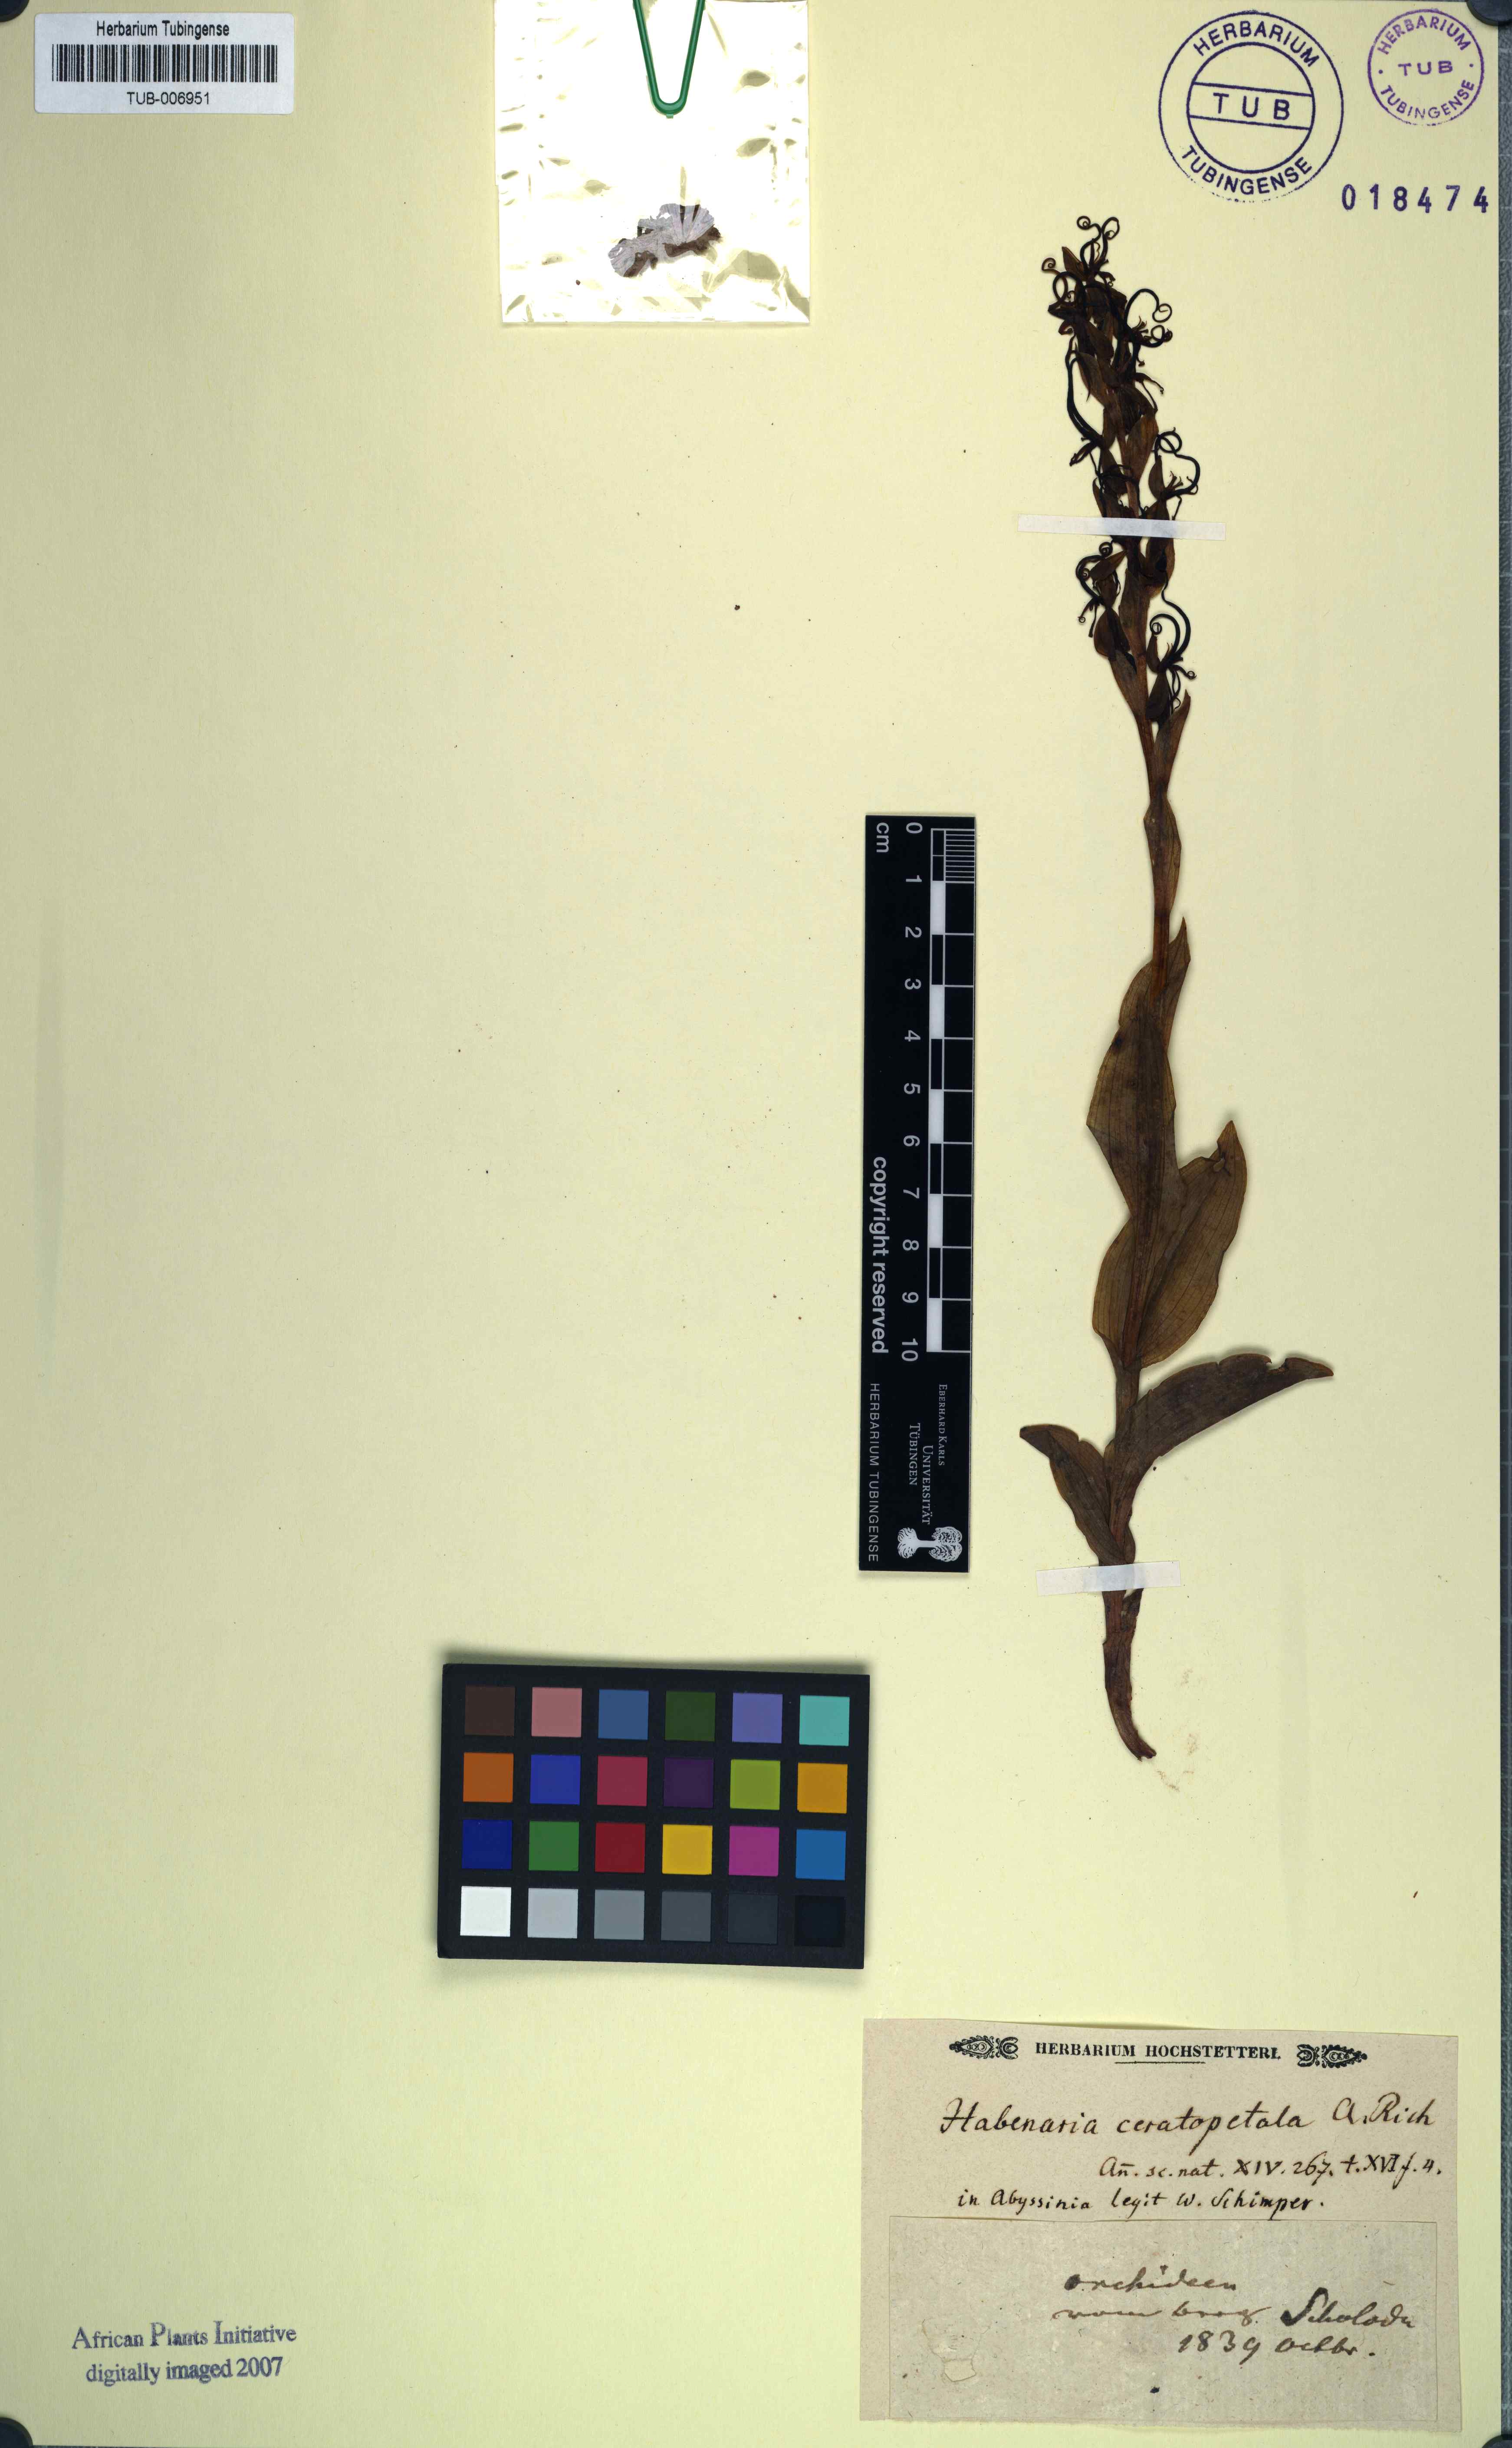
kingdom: Plantae
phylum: Tracheophyta
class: Liliopsida
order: Asparagales
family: Orchidaceae
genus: Habenaria
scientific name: Habenaria cornuta
